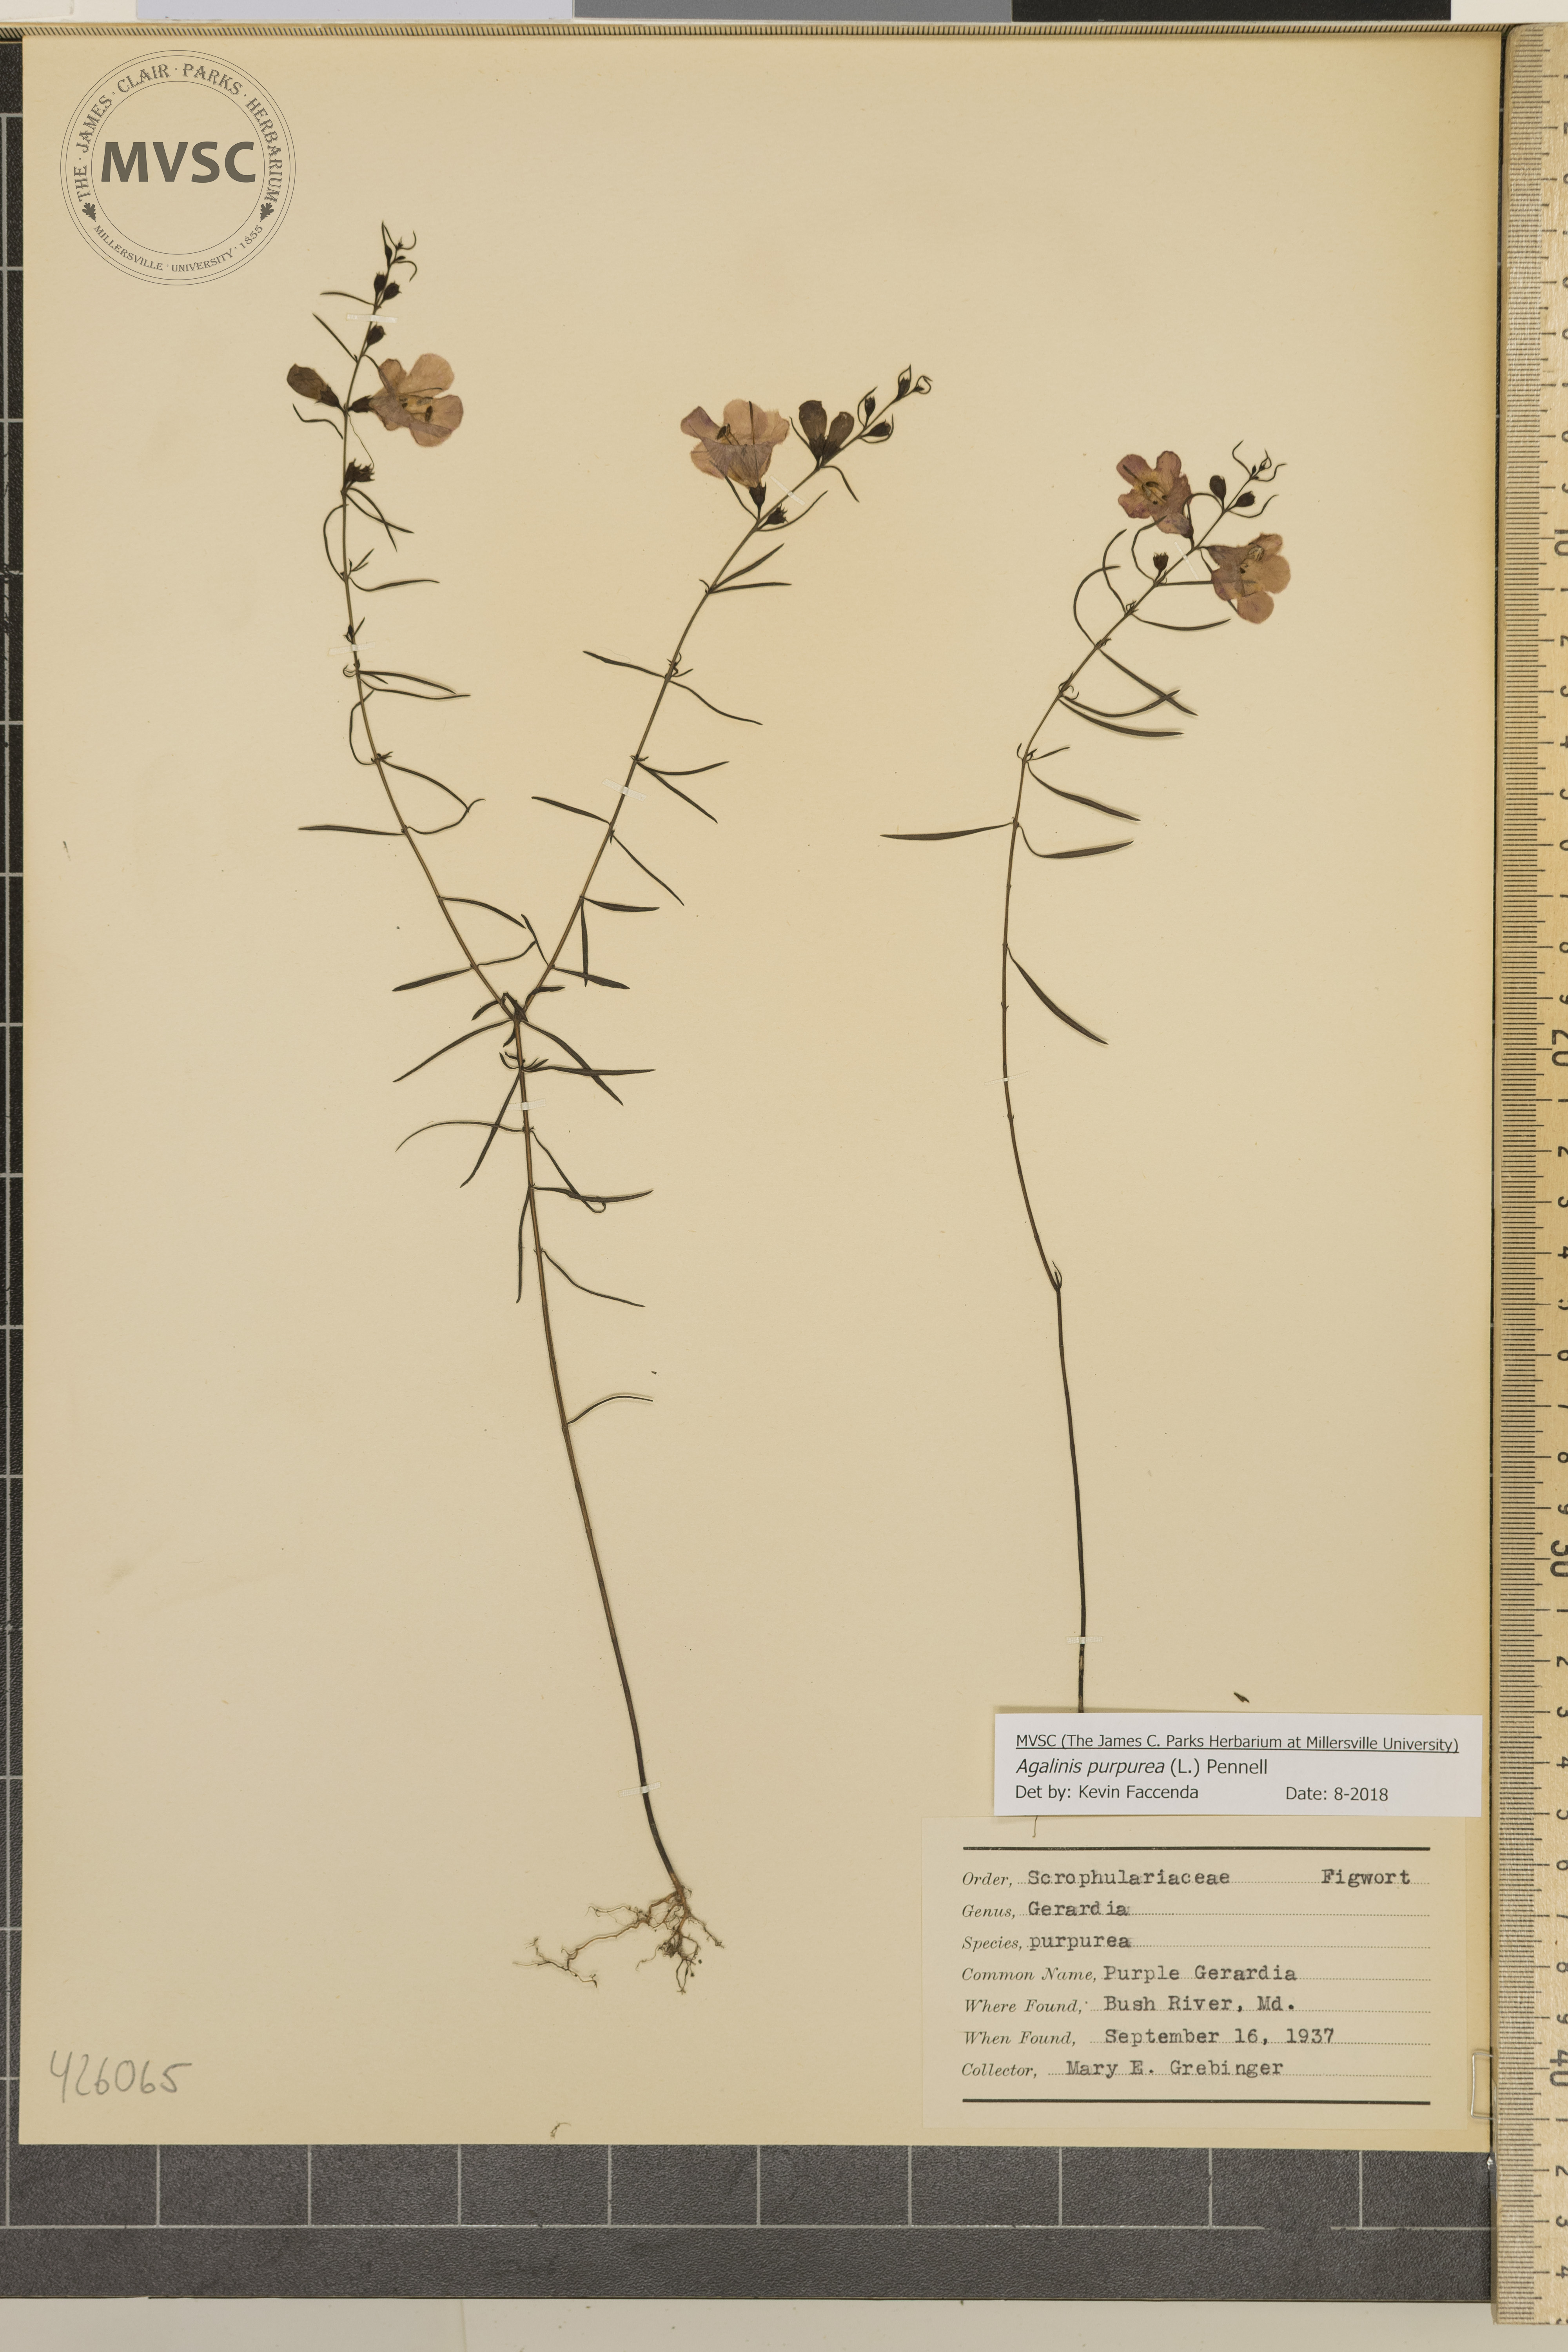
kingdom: Plantae
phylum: Tracheophyta
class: Magnoliopsida
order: Lamiales
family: Orobanchaceae
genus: Agalinis
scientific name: Agalinis purpurea
